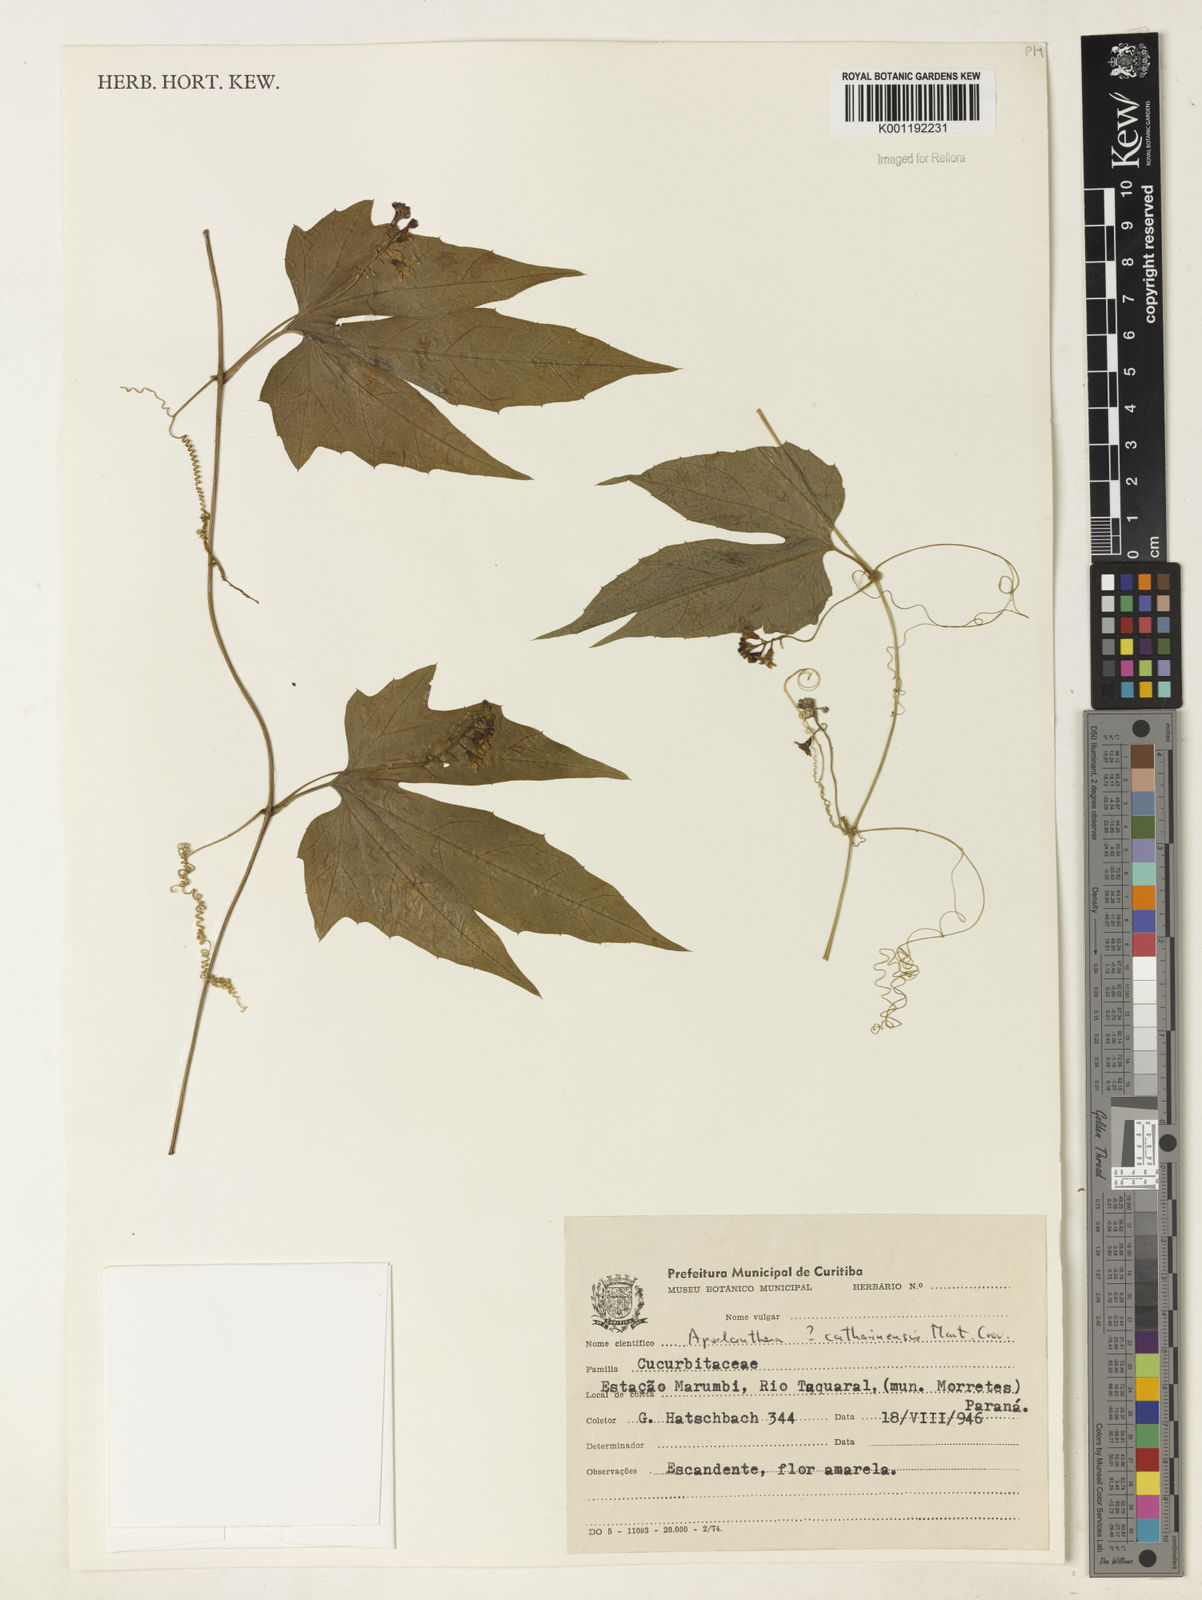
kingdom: Plantae
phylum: Tracheophyta
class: Magnoliopsida
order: Cucurbitales
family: Cucurbitaceae
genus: Apodanthera
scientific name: Apodanthera catharinensis
